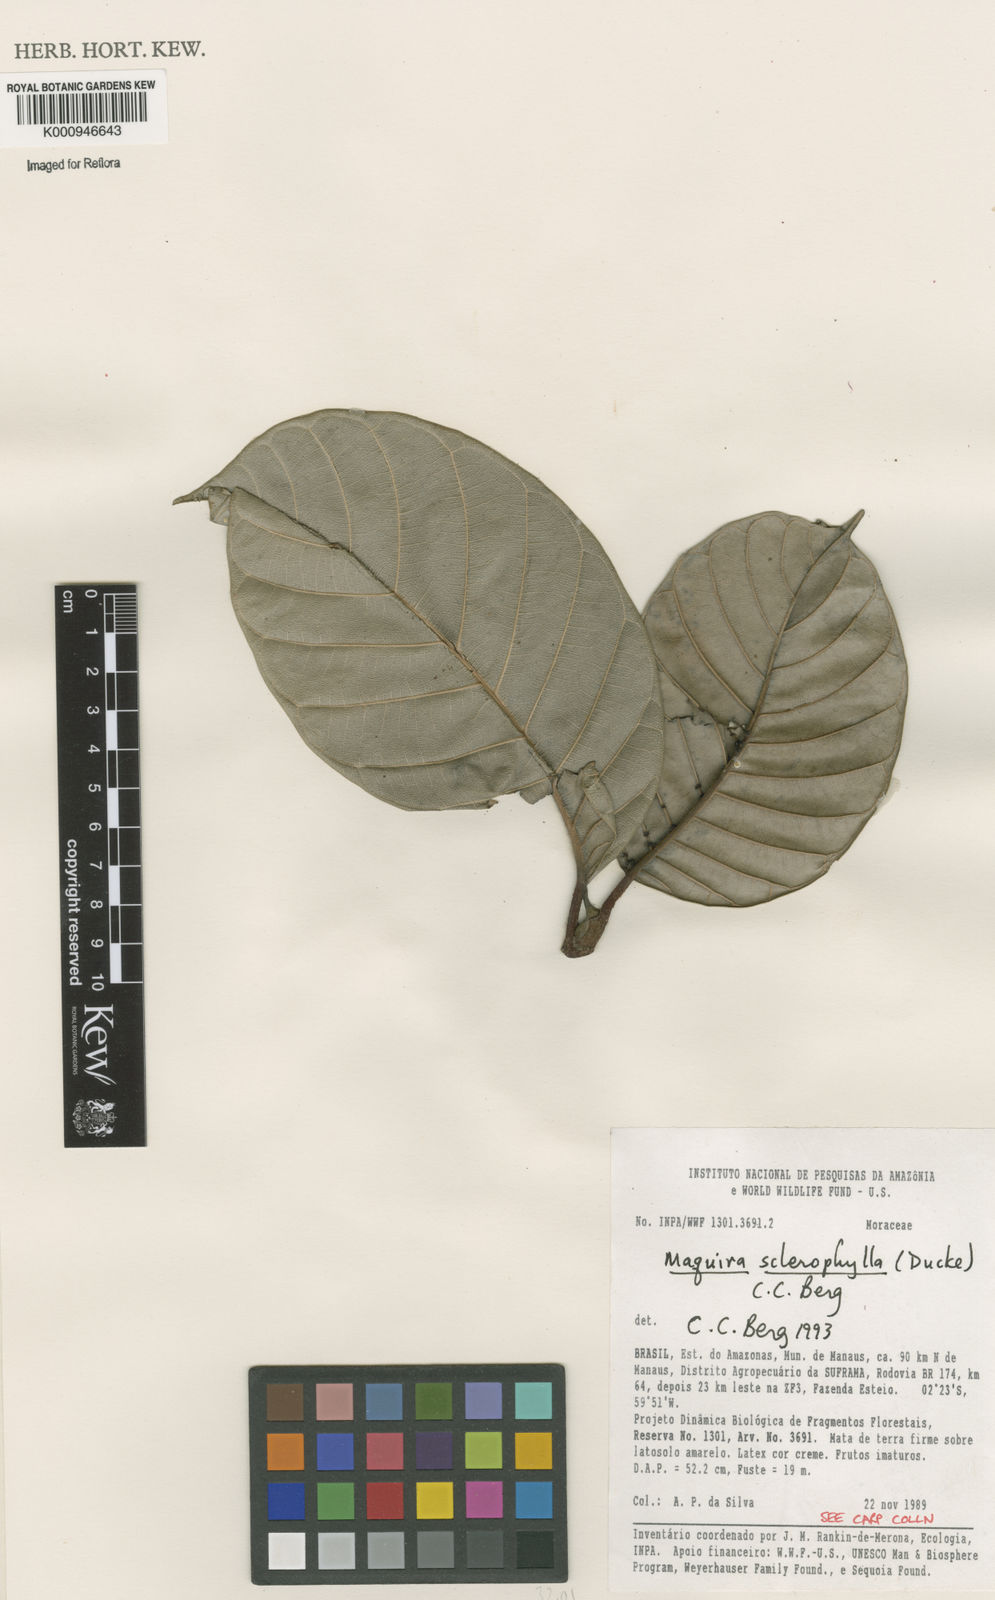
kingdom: Plantae
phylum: Tracheophyta
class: Magnoliopsida
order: Rosales
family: Moraceae
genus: Maquira
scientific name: Maquira sclerophylla
